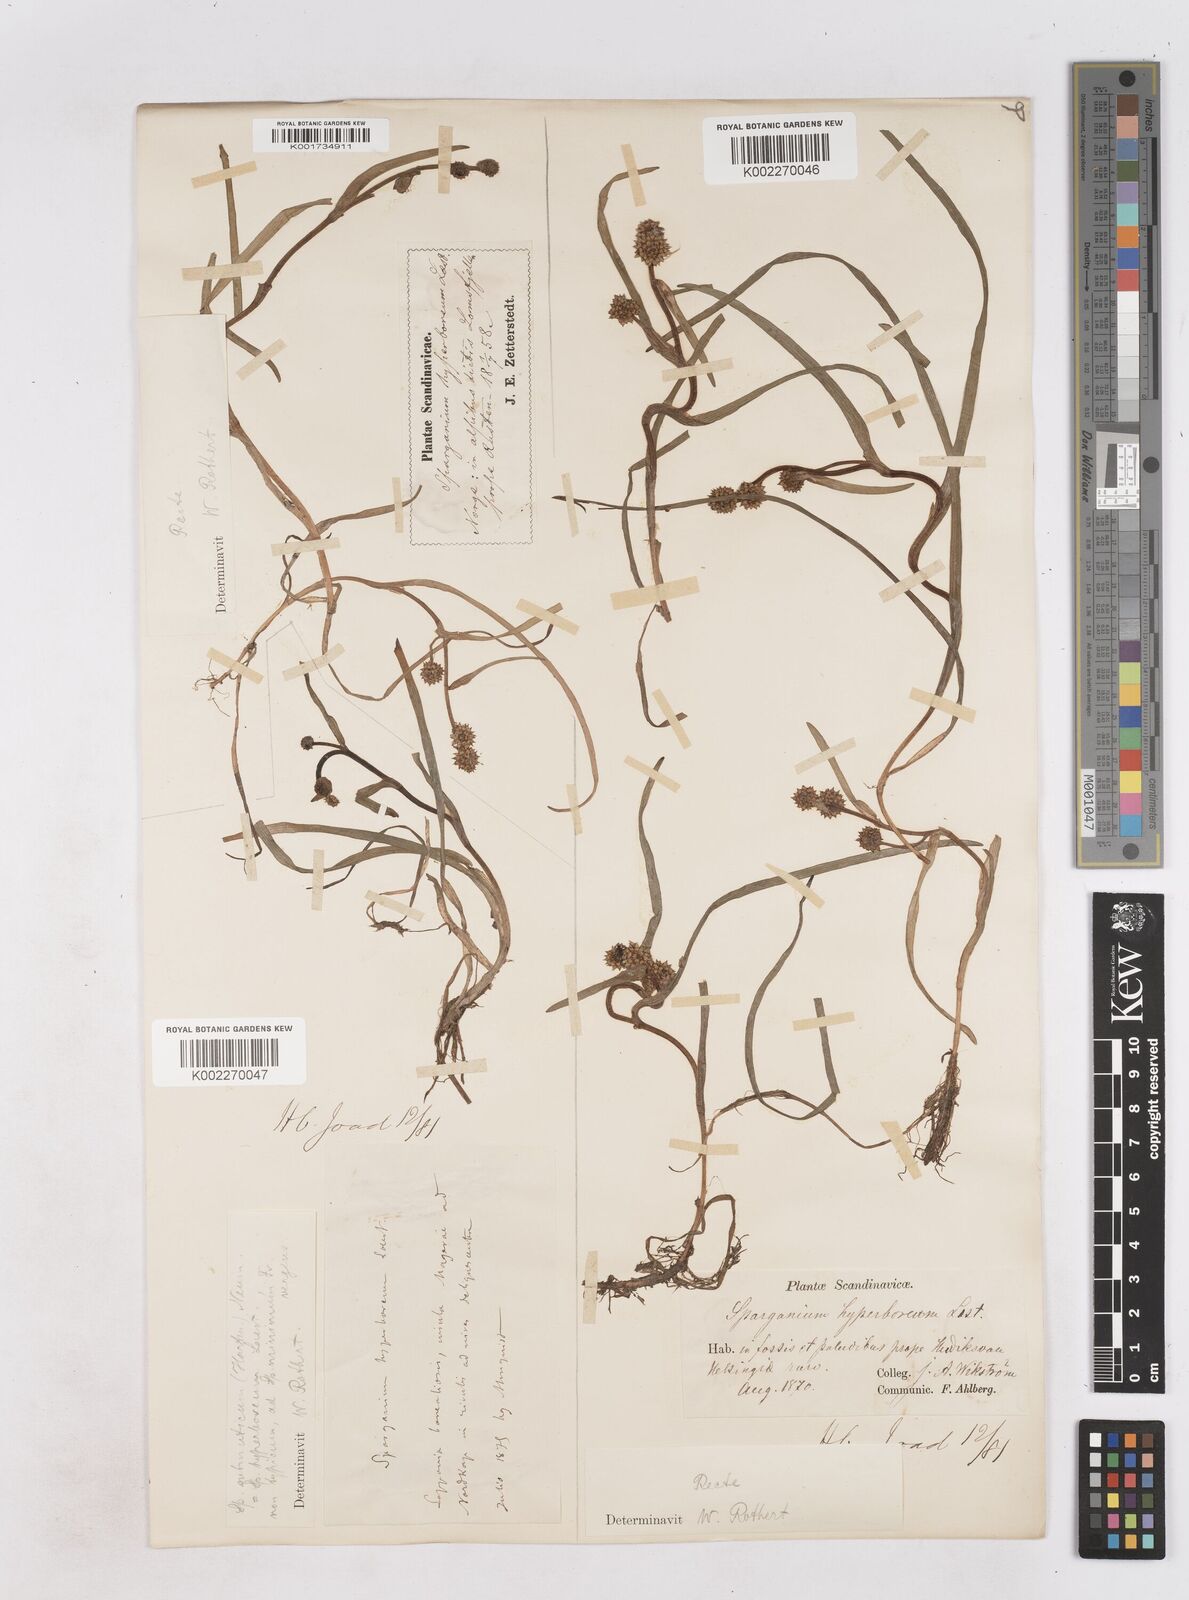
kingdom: Plantae
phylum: Tracheophyta
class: Liliopsida
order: Poales
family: Typhaceae
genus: Sparganium
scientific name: Sparganium hyperboreum
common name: Arctic burreed
